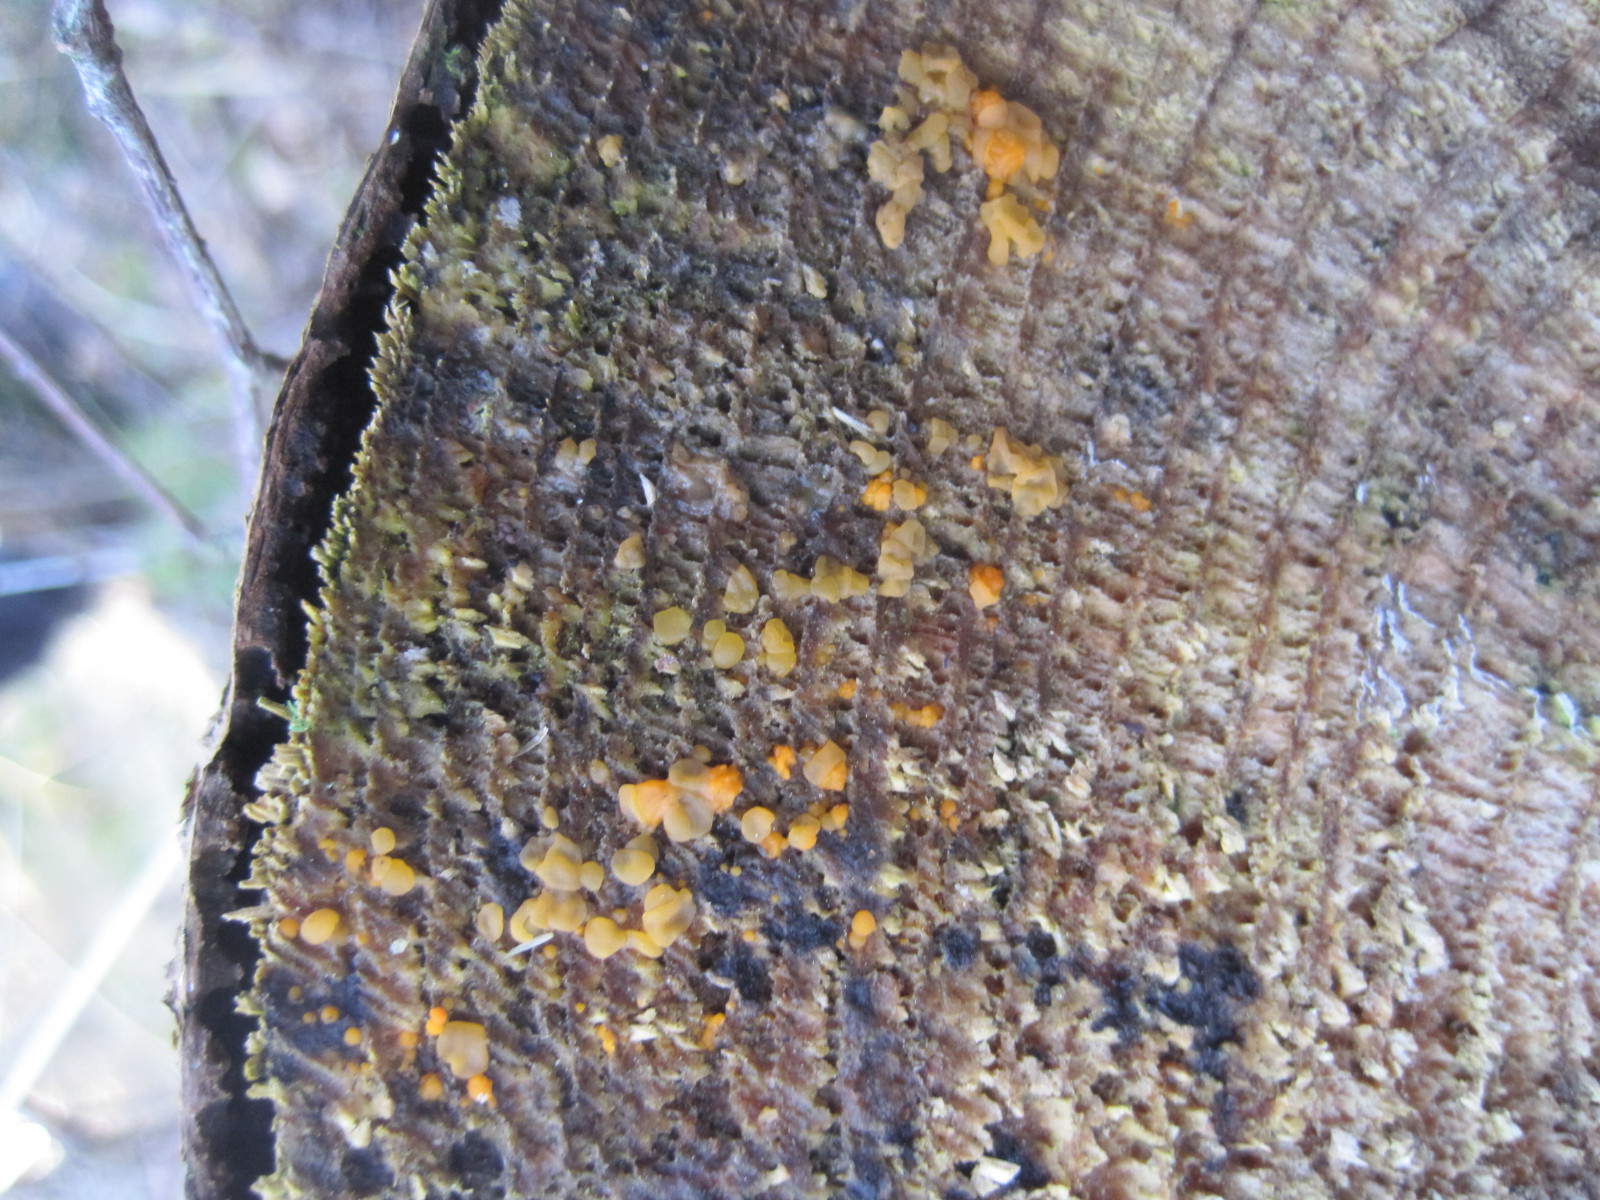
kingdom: Fungi
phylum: Basidiomycota
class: Dacrymycetes
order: Dacrymycetales
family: Dacrymycetaceae
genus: Dacrymyces
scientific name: Dacrymyces stillatus
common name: almindelig tåresvamp
